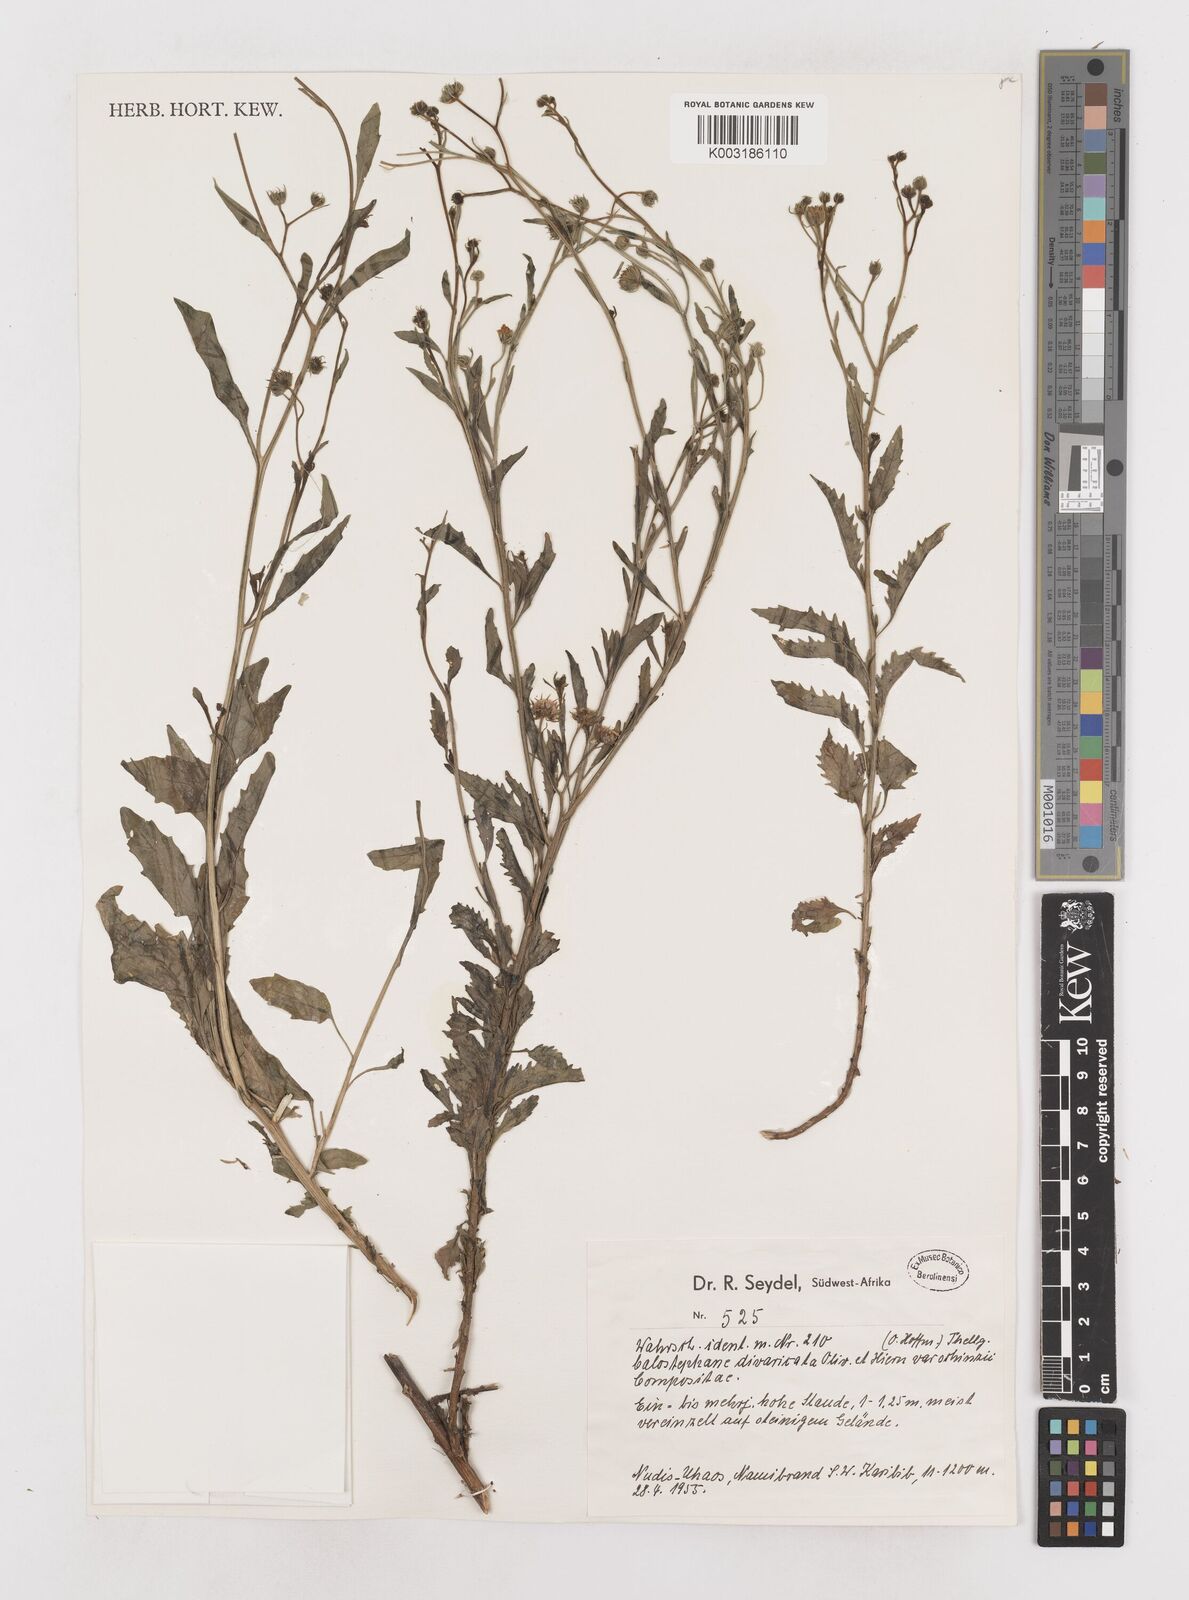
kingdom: Plantae
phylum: Tracheophyta
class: Magnoliopsida
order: Asterales
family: Asteraceae
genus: Calostephane
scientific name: Calostephane divaricata
